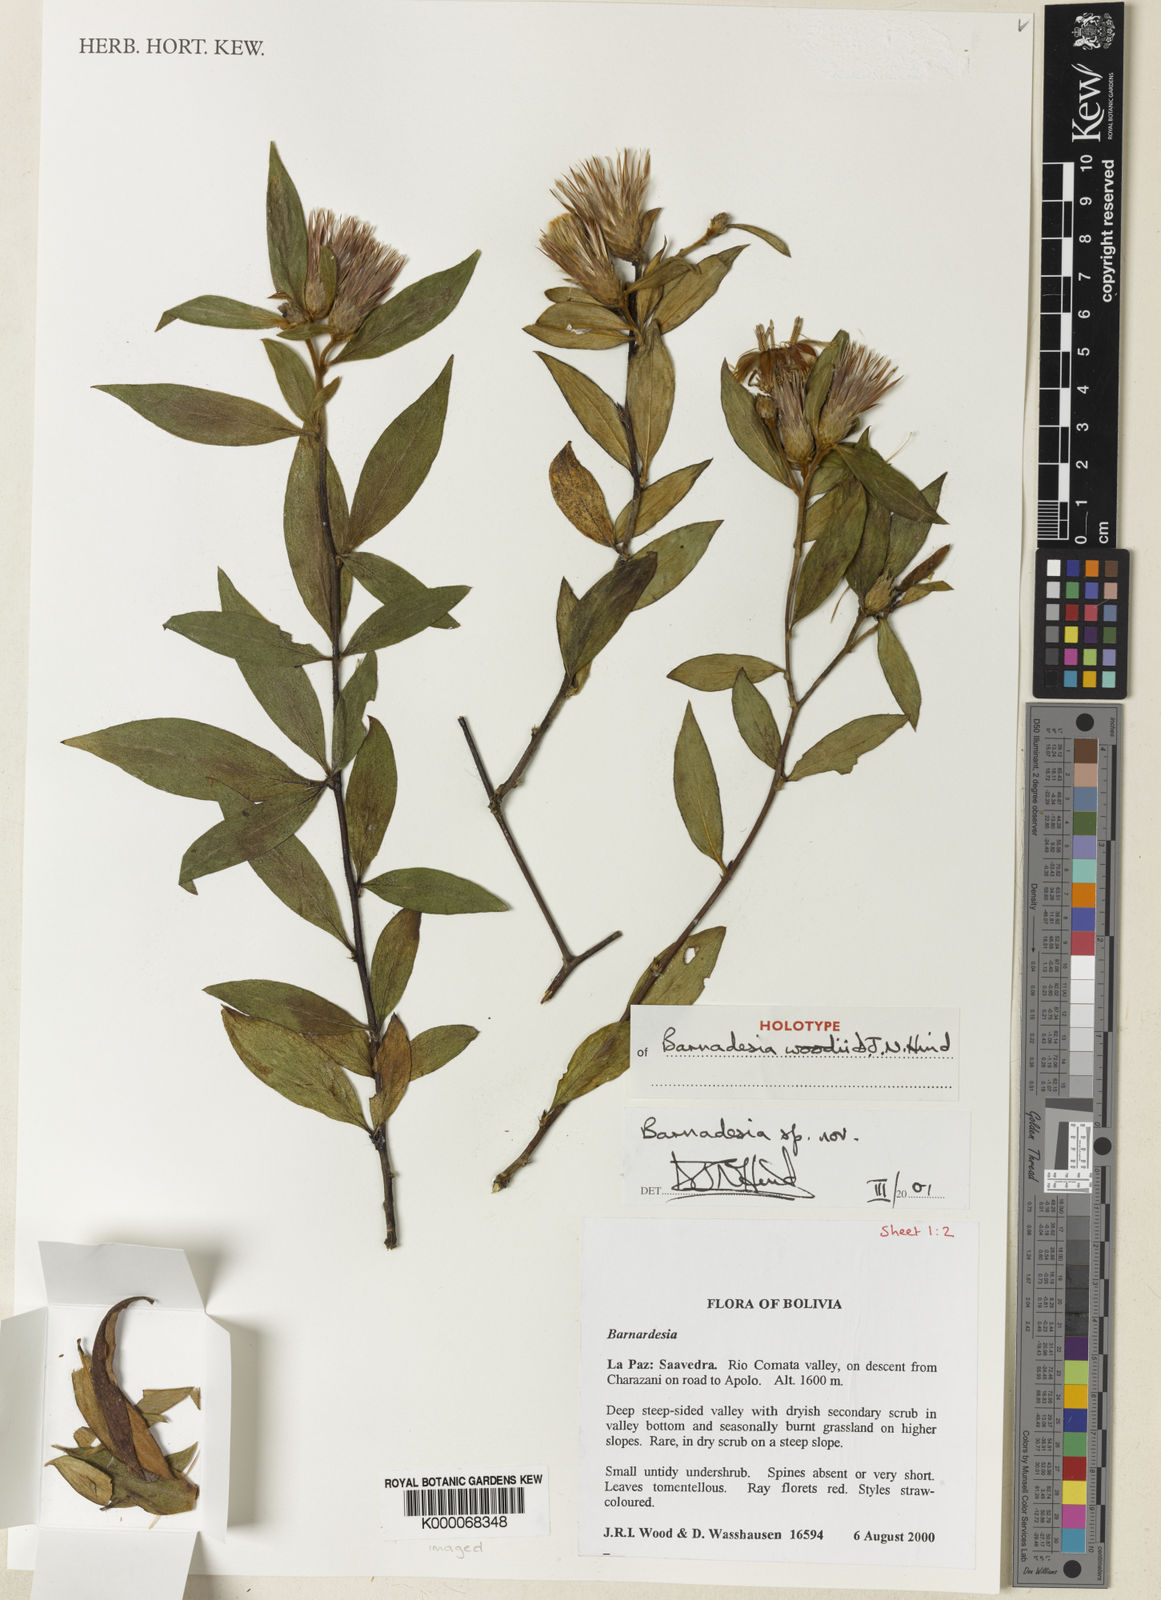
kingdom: Plantae
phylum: Tracheophyta
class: Magnoliopsida
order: Asterales
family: Asteraceae
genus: Barnadesia
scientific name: Barnadesia woodii
